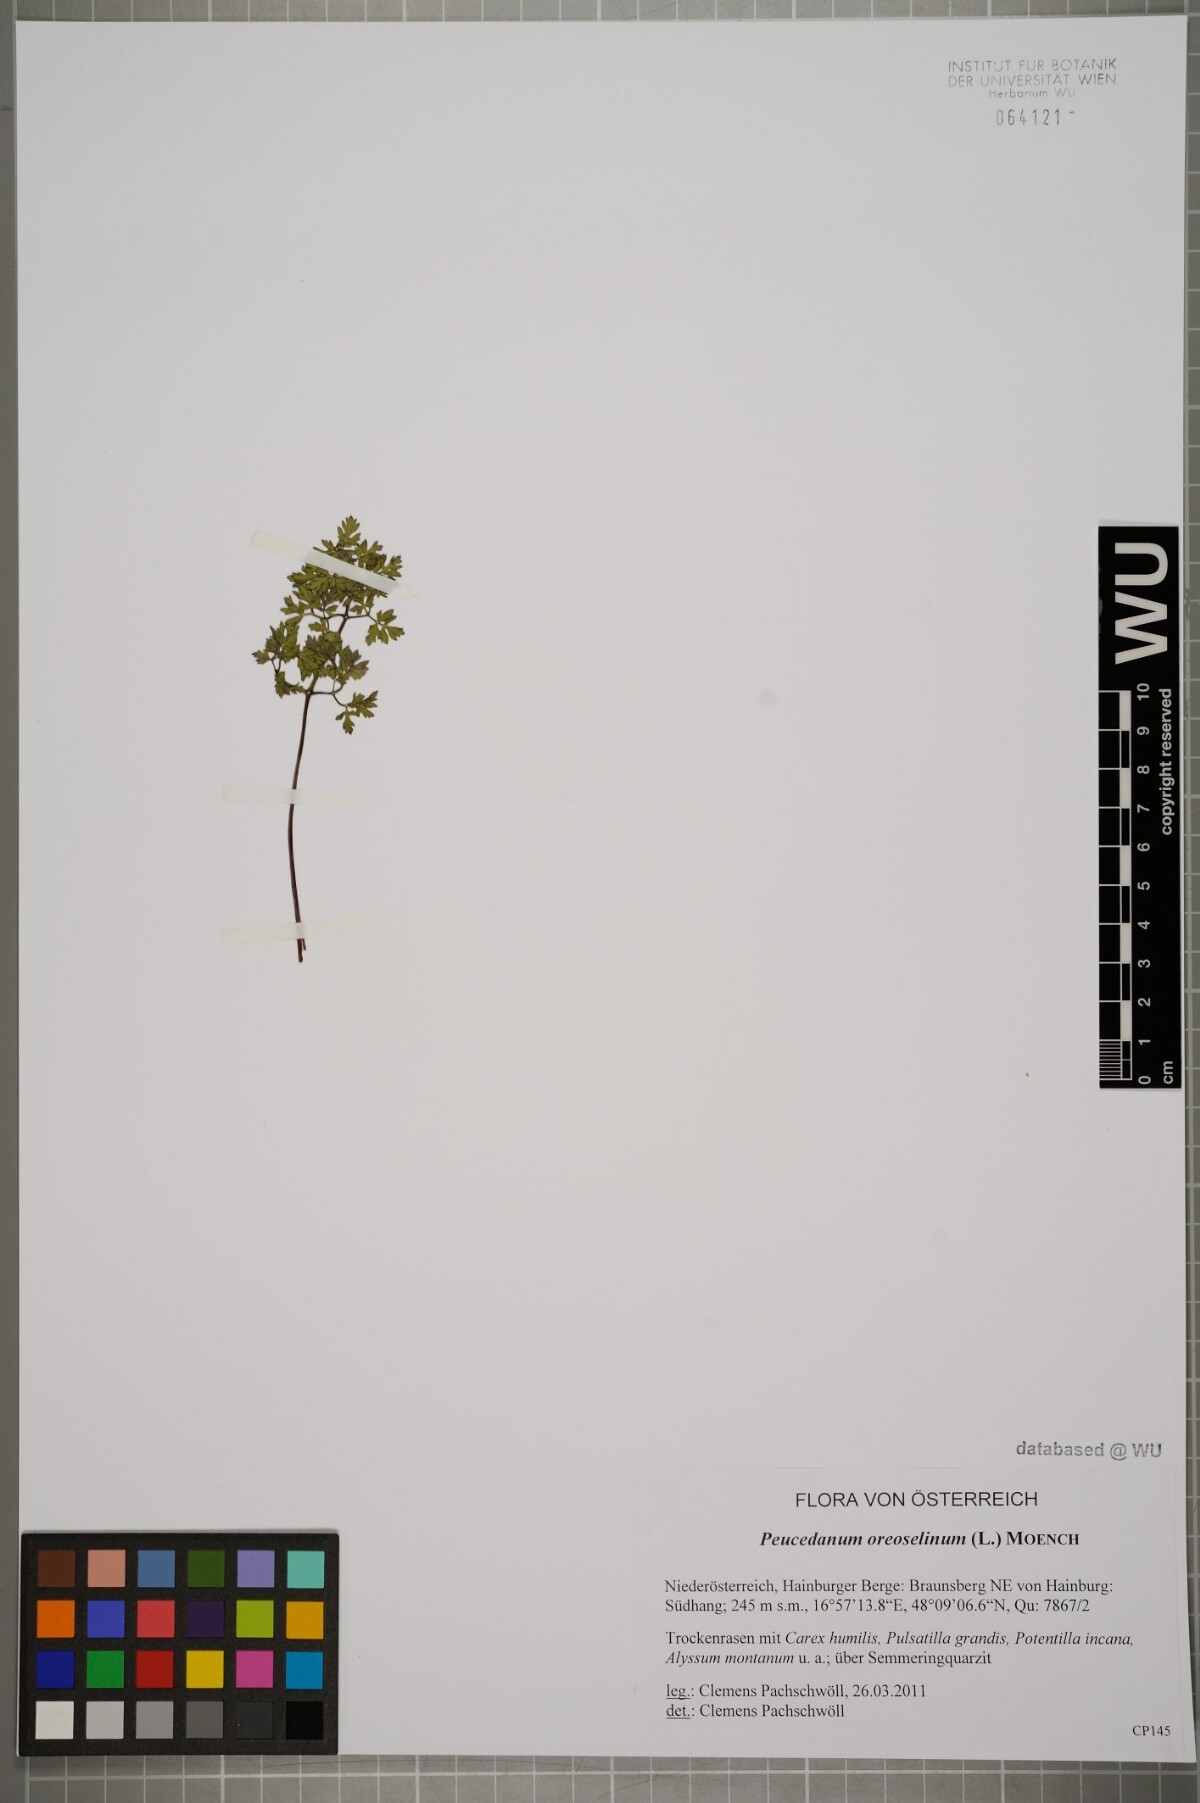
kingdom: Plantae
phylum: Tracheophyta
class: Magnoliopsida
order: Apiales
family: Apiaceae
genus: Oreoselinum
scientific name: Oreoselinum nigrum
